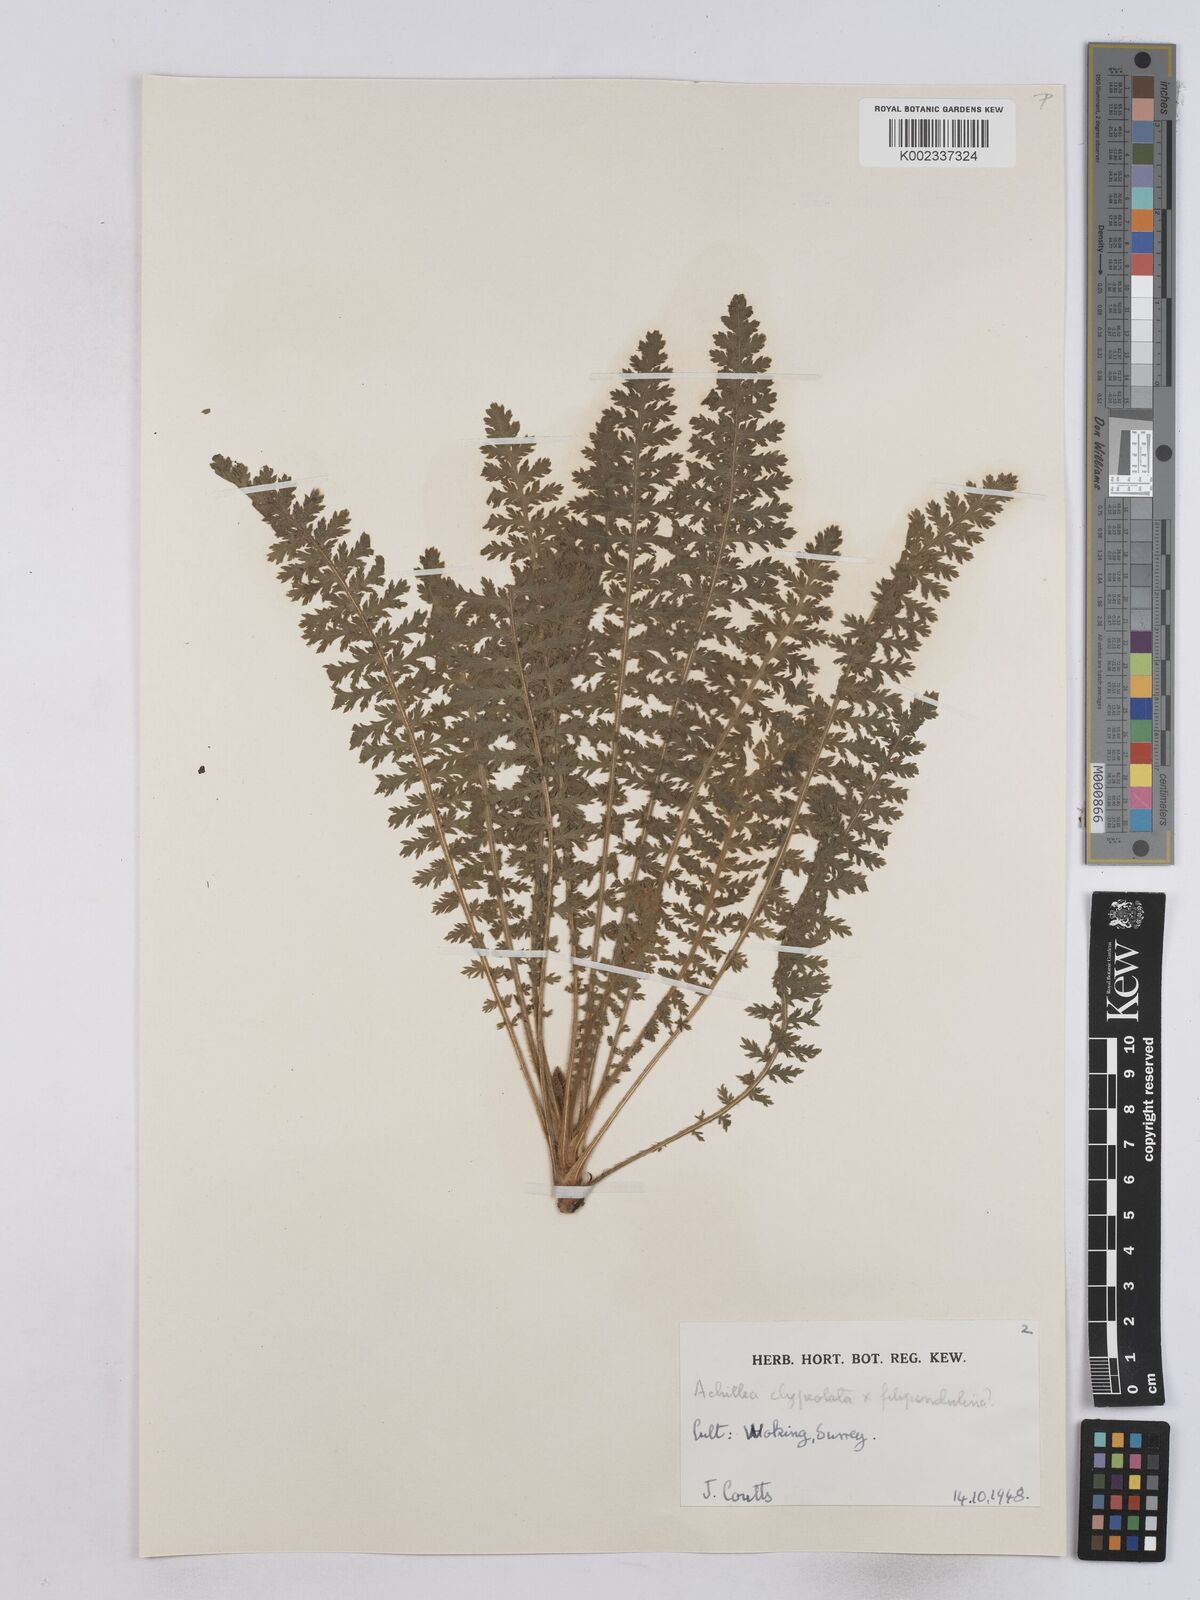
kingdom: Plantae
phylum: Tracheophyta
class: Magnoliopsida
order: Asterales
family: Asteraceae
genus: Achillea
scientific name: Achillea clypeolata
